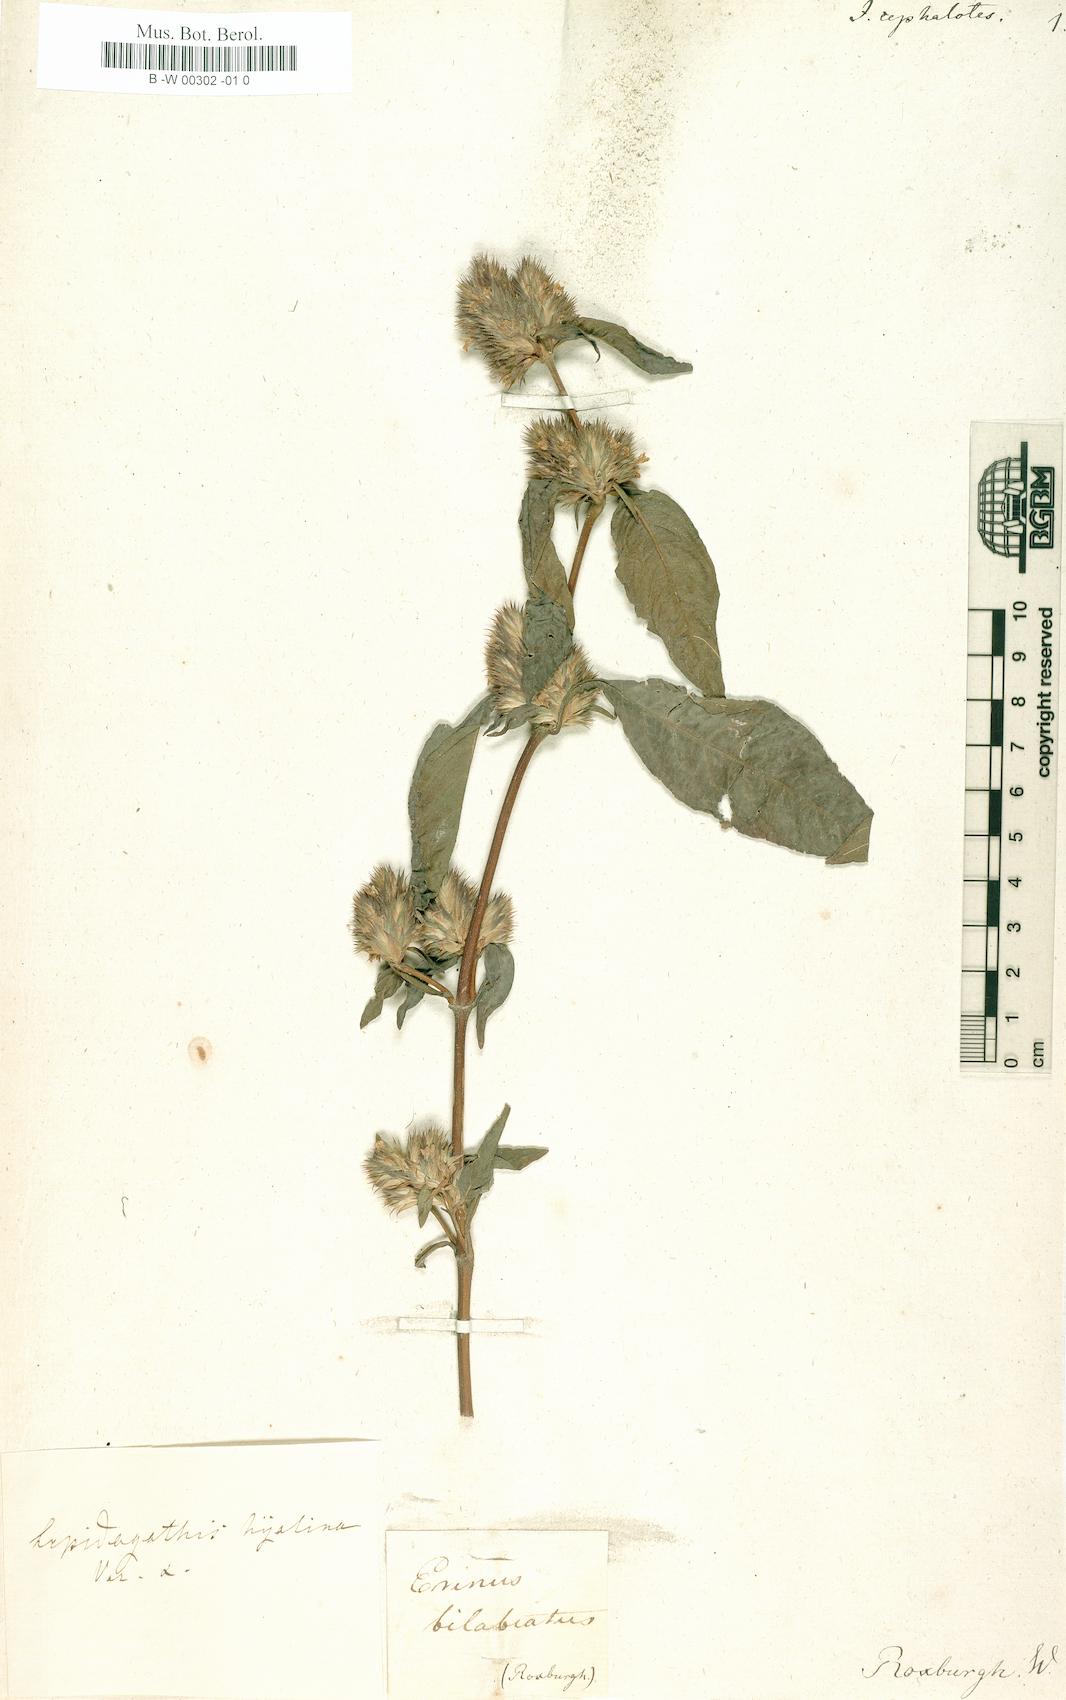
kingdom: Plantae
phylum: Tracheophyta
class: Magnoliopsida
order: Lamiales
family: Acanthaceae
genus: Lepidagathis
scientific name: Lepidagathis incurva
